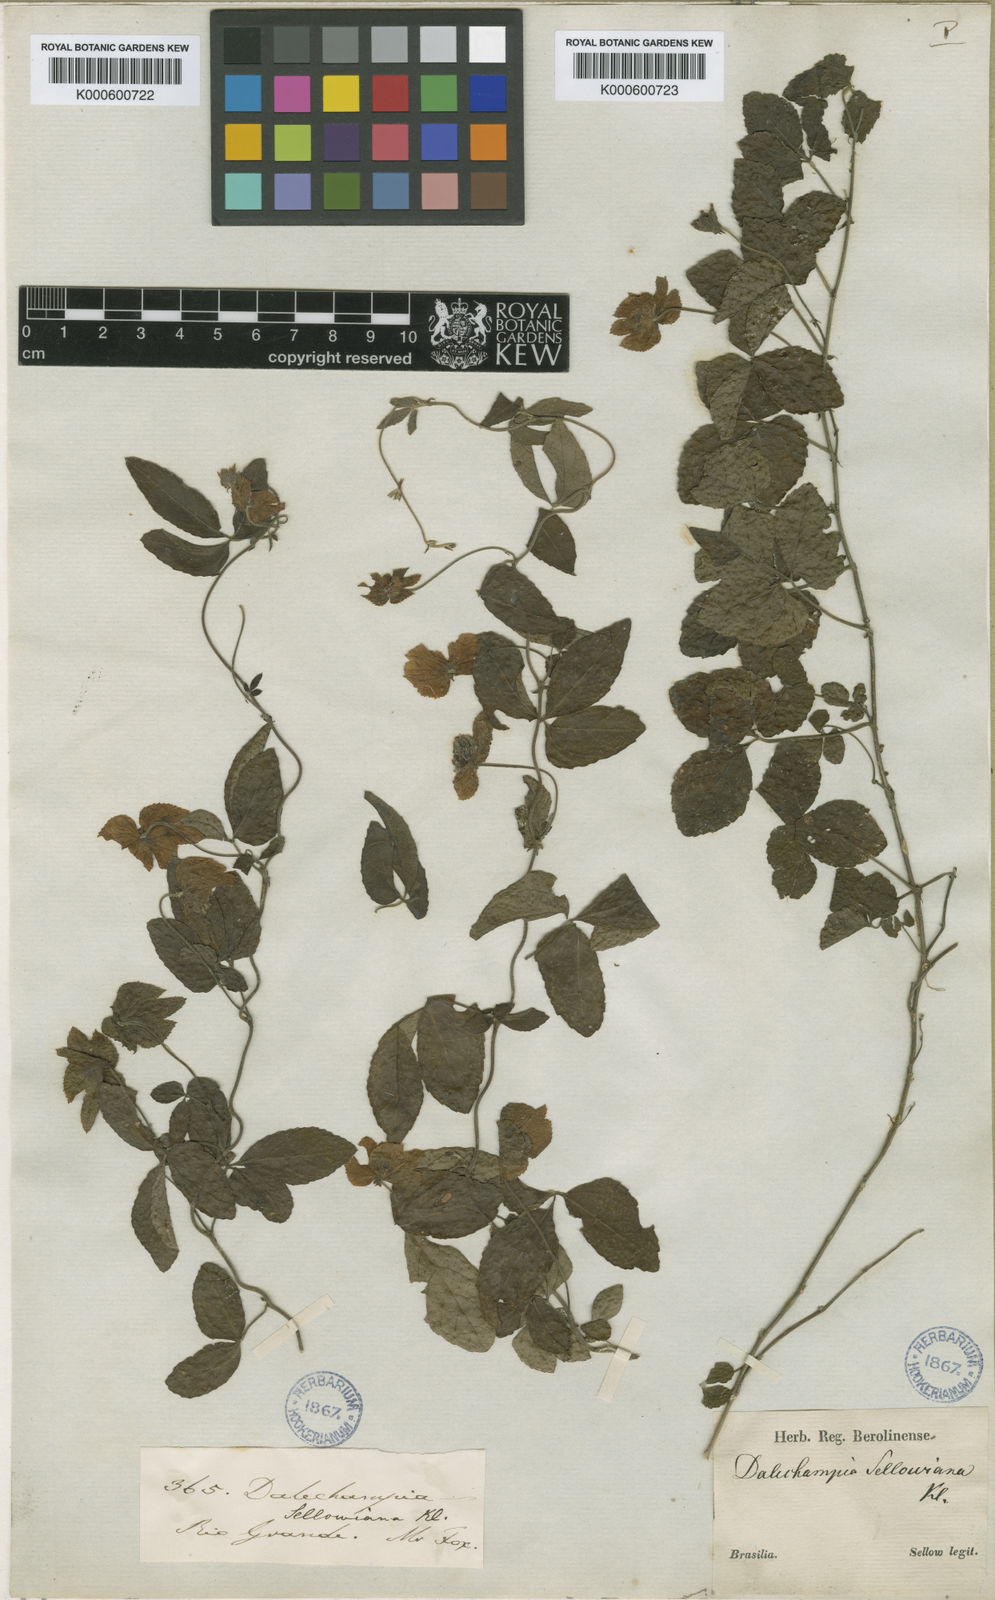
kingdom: Plantae
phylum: Tracheophyta
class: Magnoliopsida
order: Malpighiales
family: Euphorbiaceae
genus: Dalechampia
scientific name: Dalechampia
